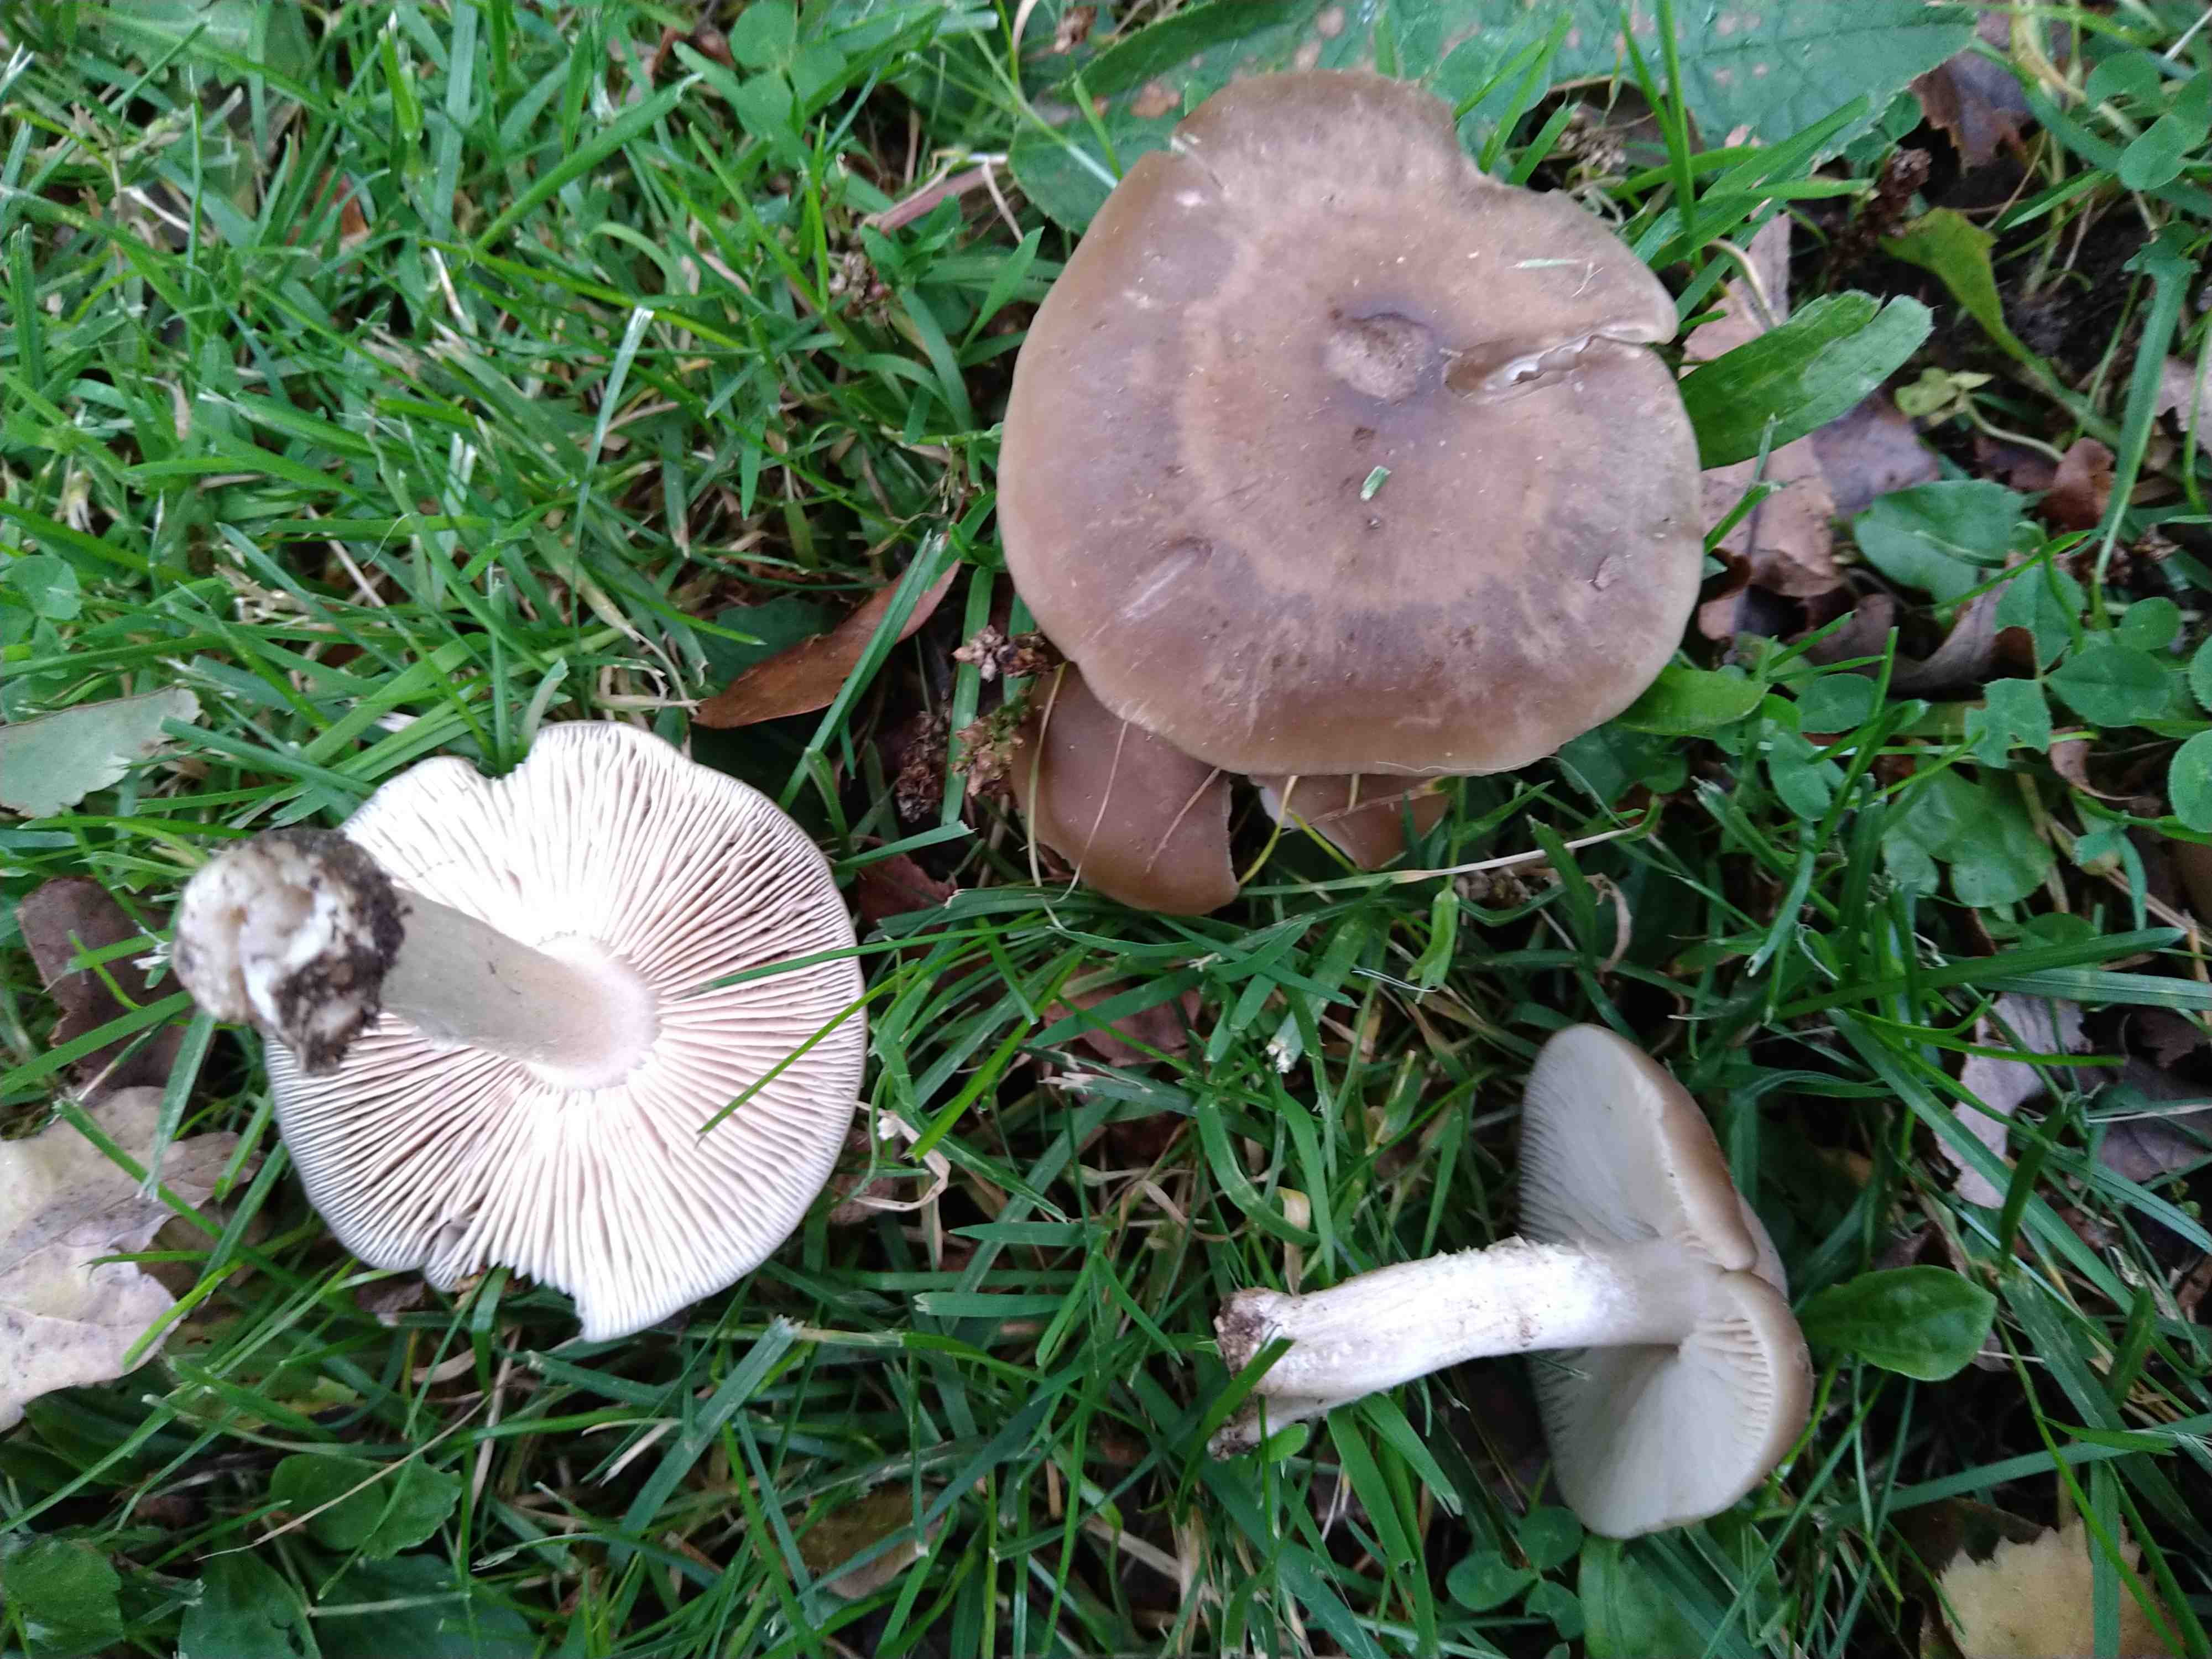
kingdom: Fungi
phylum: Basidiomycota
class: Agaricomycetes
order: Agaricales
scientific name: Agaricales
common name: champignonordenen
